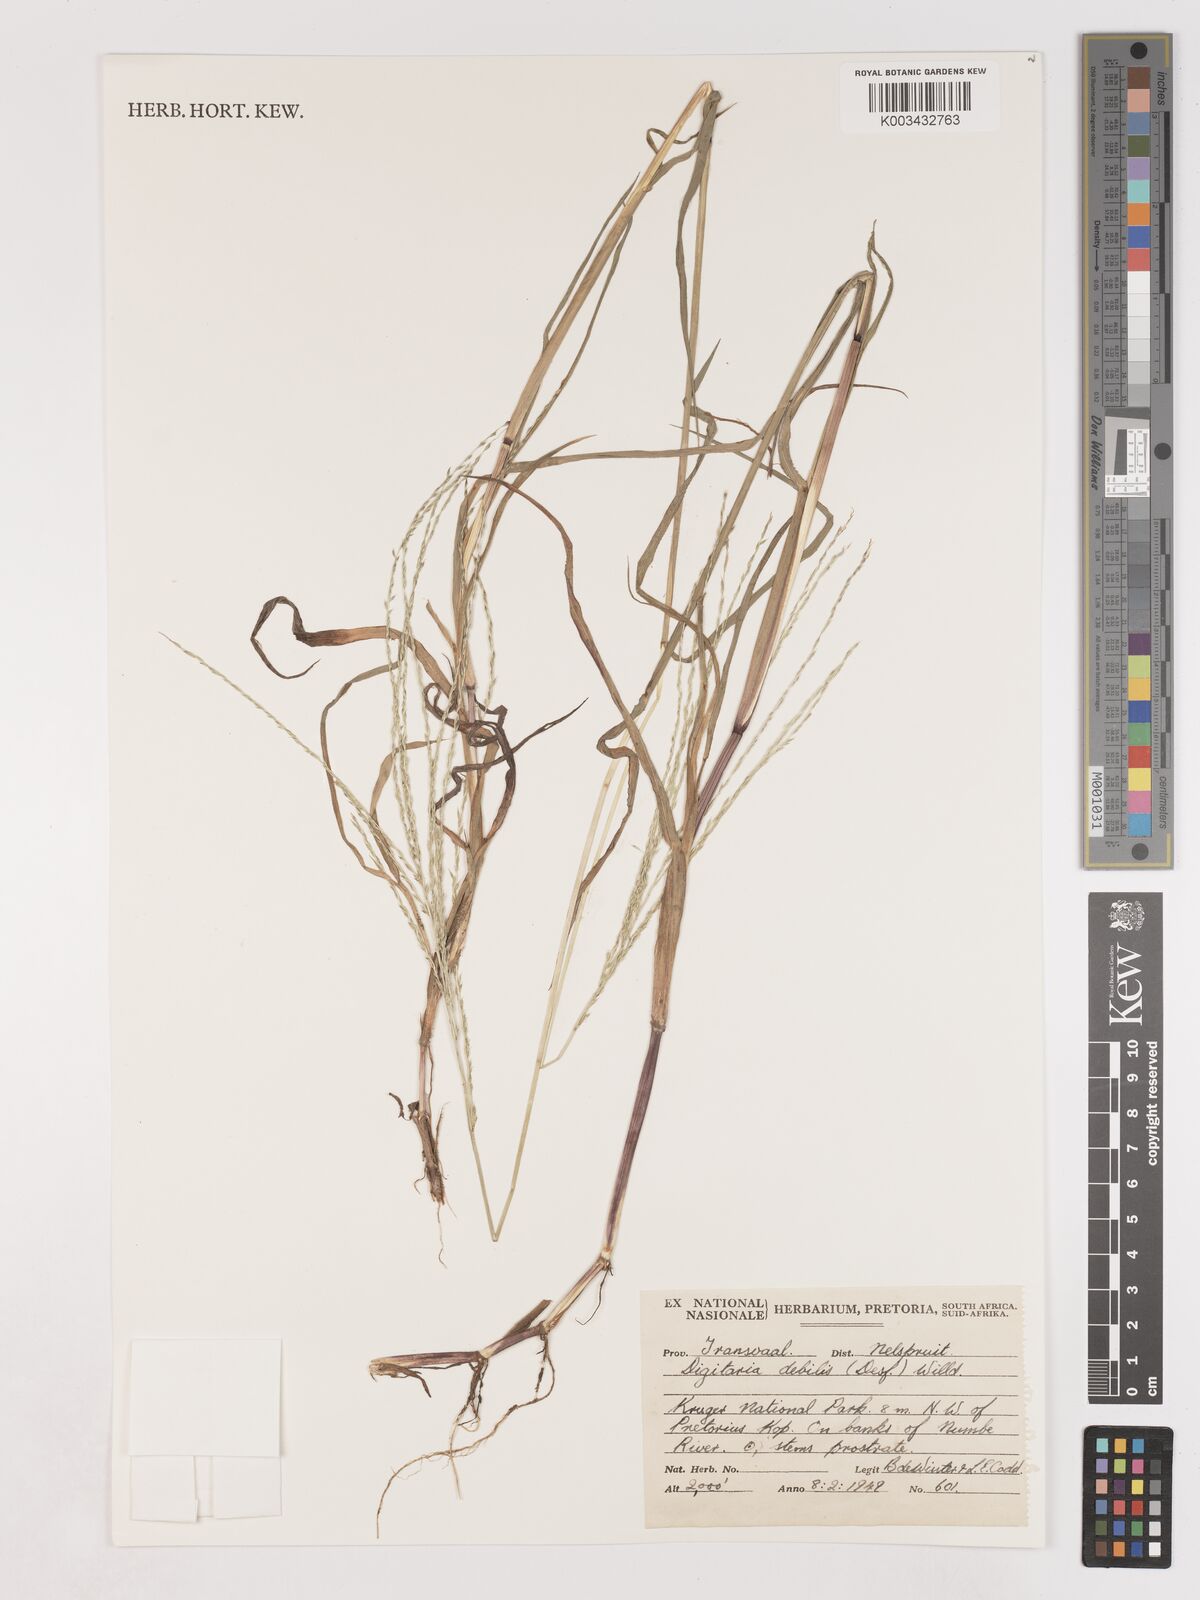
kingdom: Plantae
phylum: Tracheophyta
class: Liliopsida
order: Poales
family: Poaceae
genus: Digitaria
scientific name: Digitaria debilis
